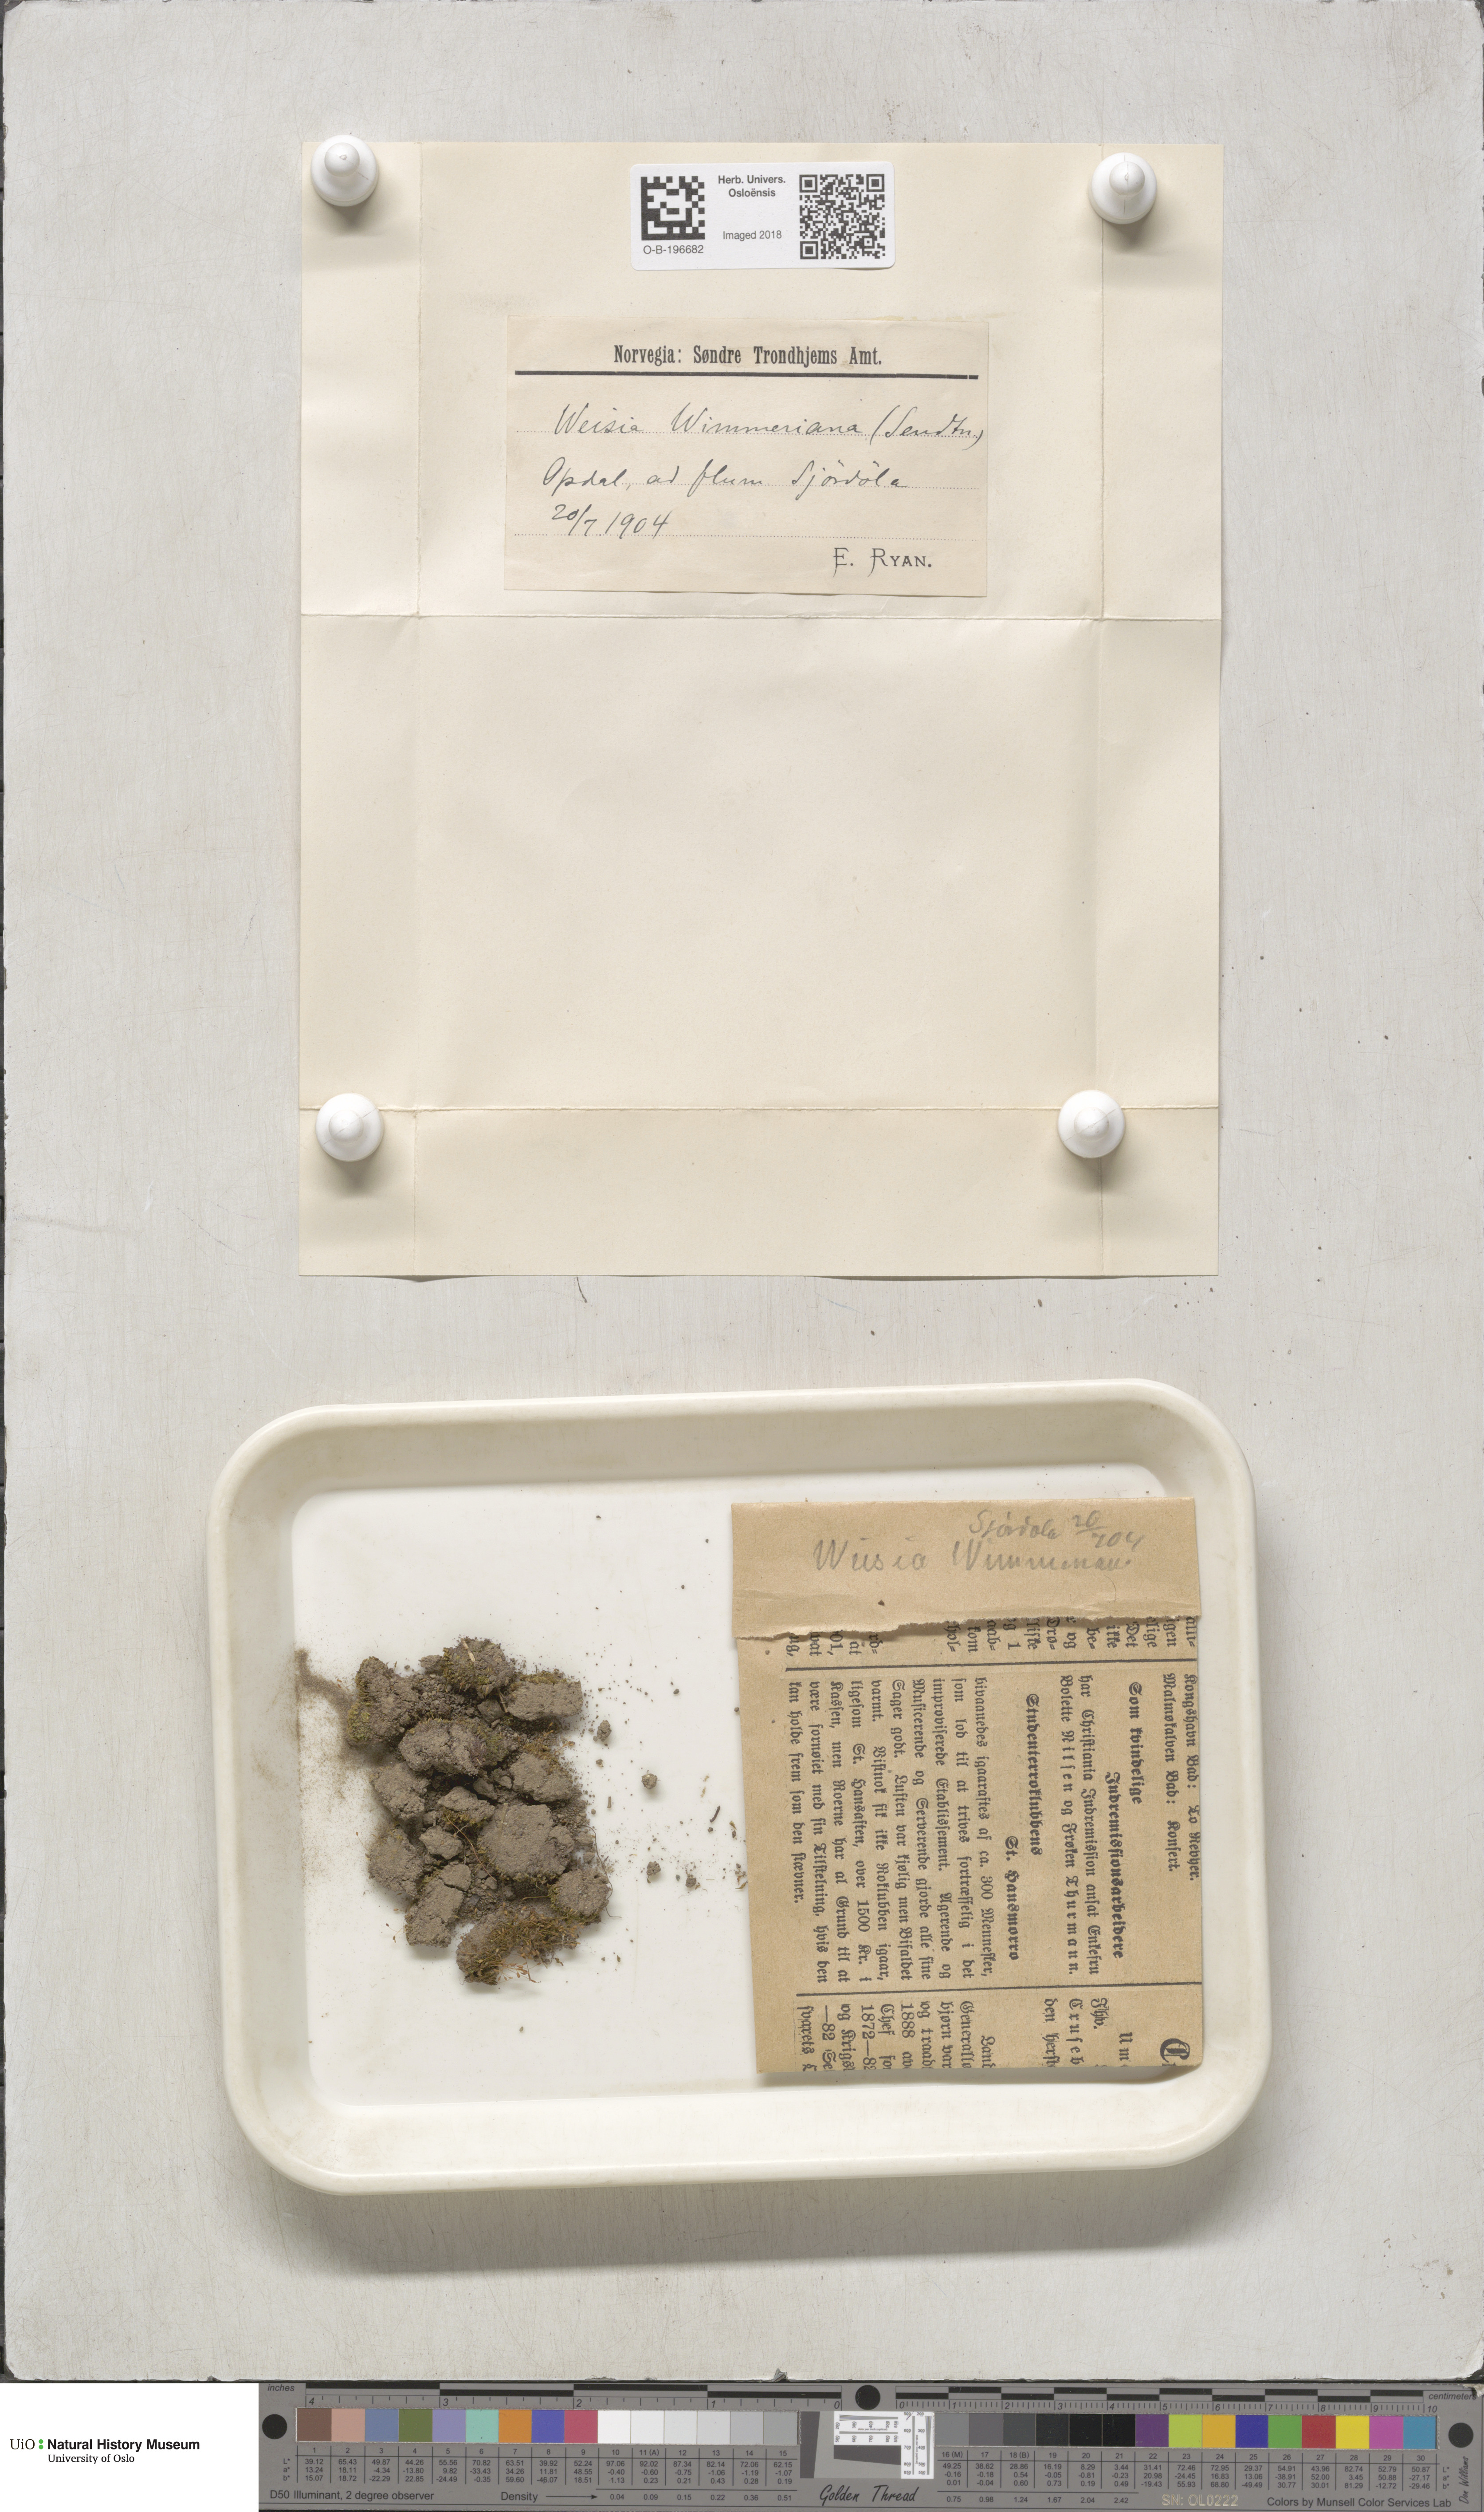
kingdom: Plantae
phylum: Bryophyta
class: Bryopsida
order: Pottiales
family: Pottiaceae
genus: Weissia
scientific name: Weissia wimmeriana
